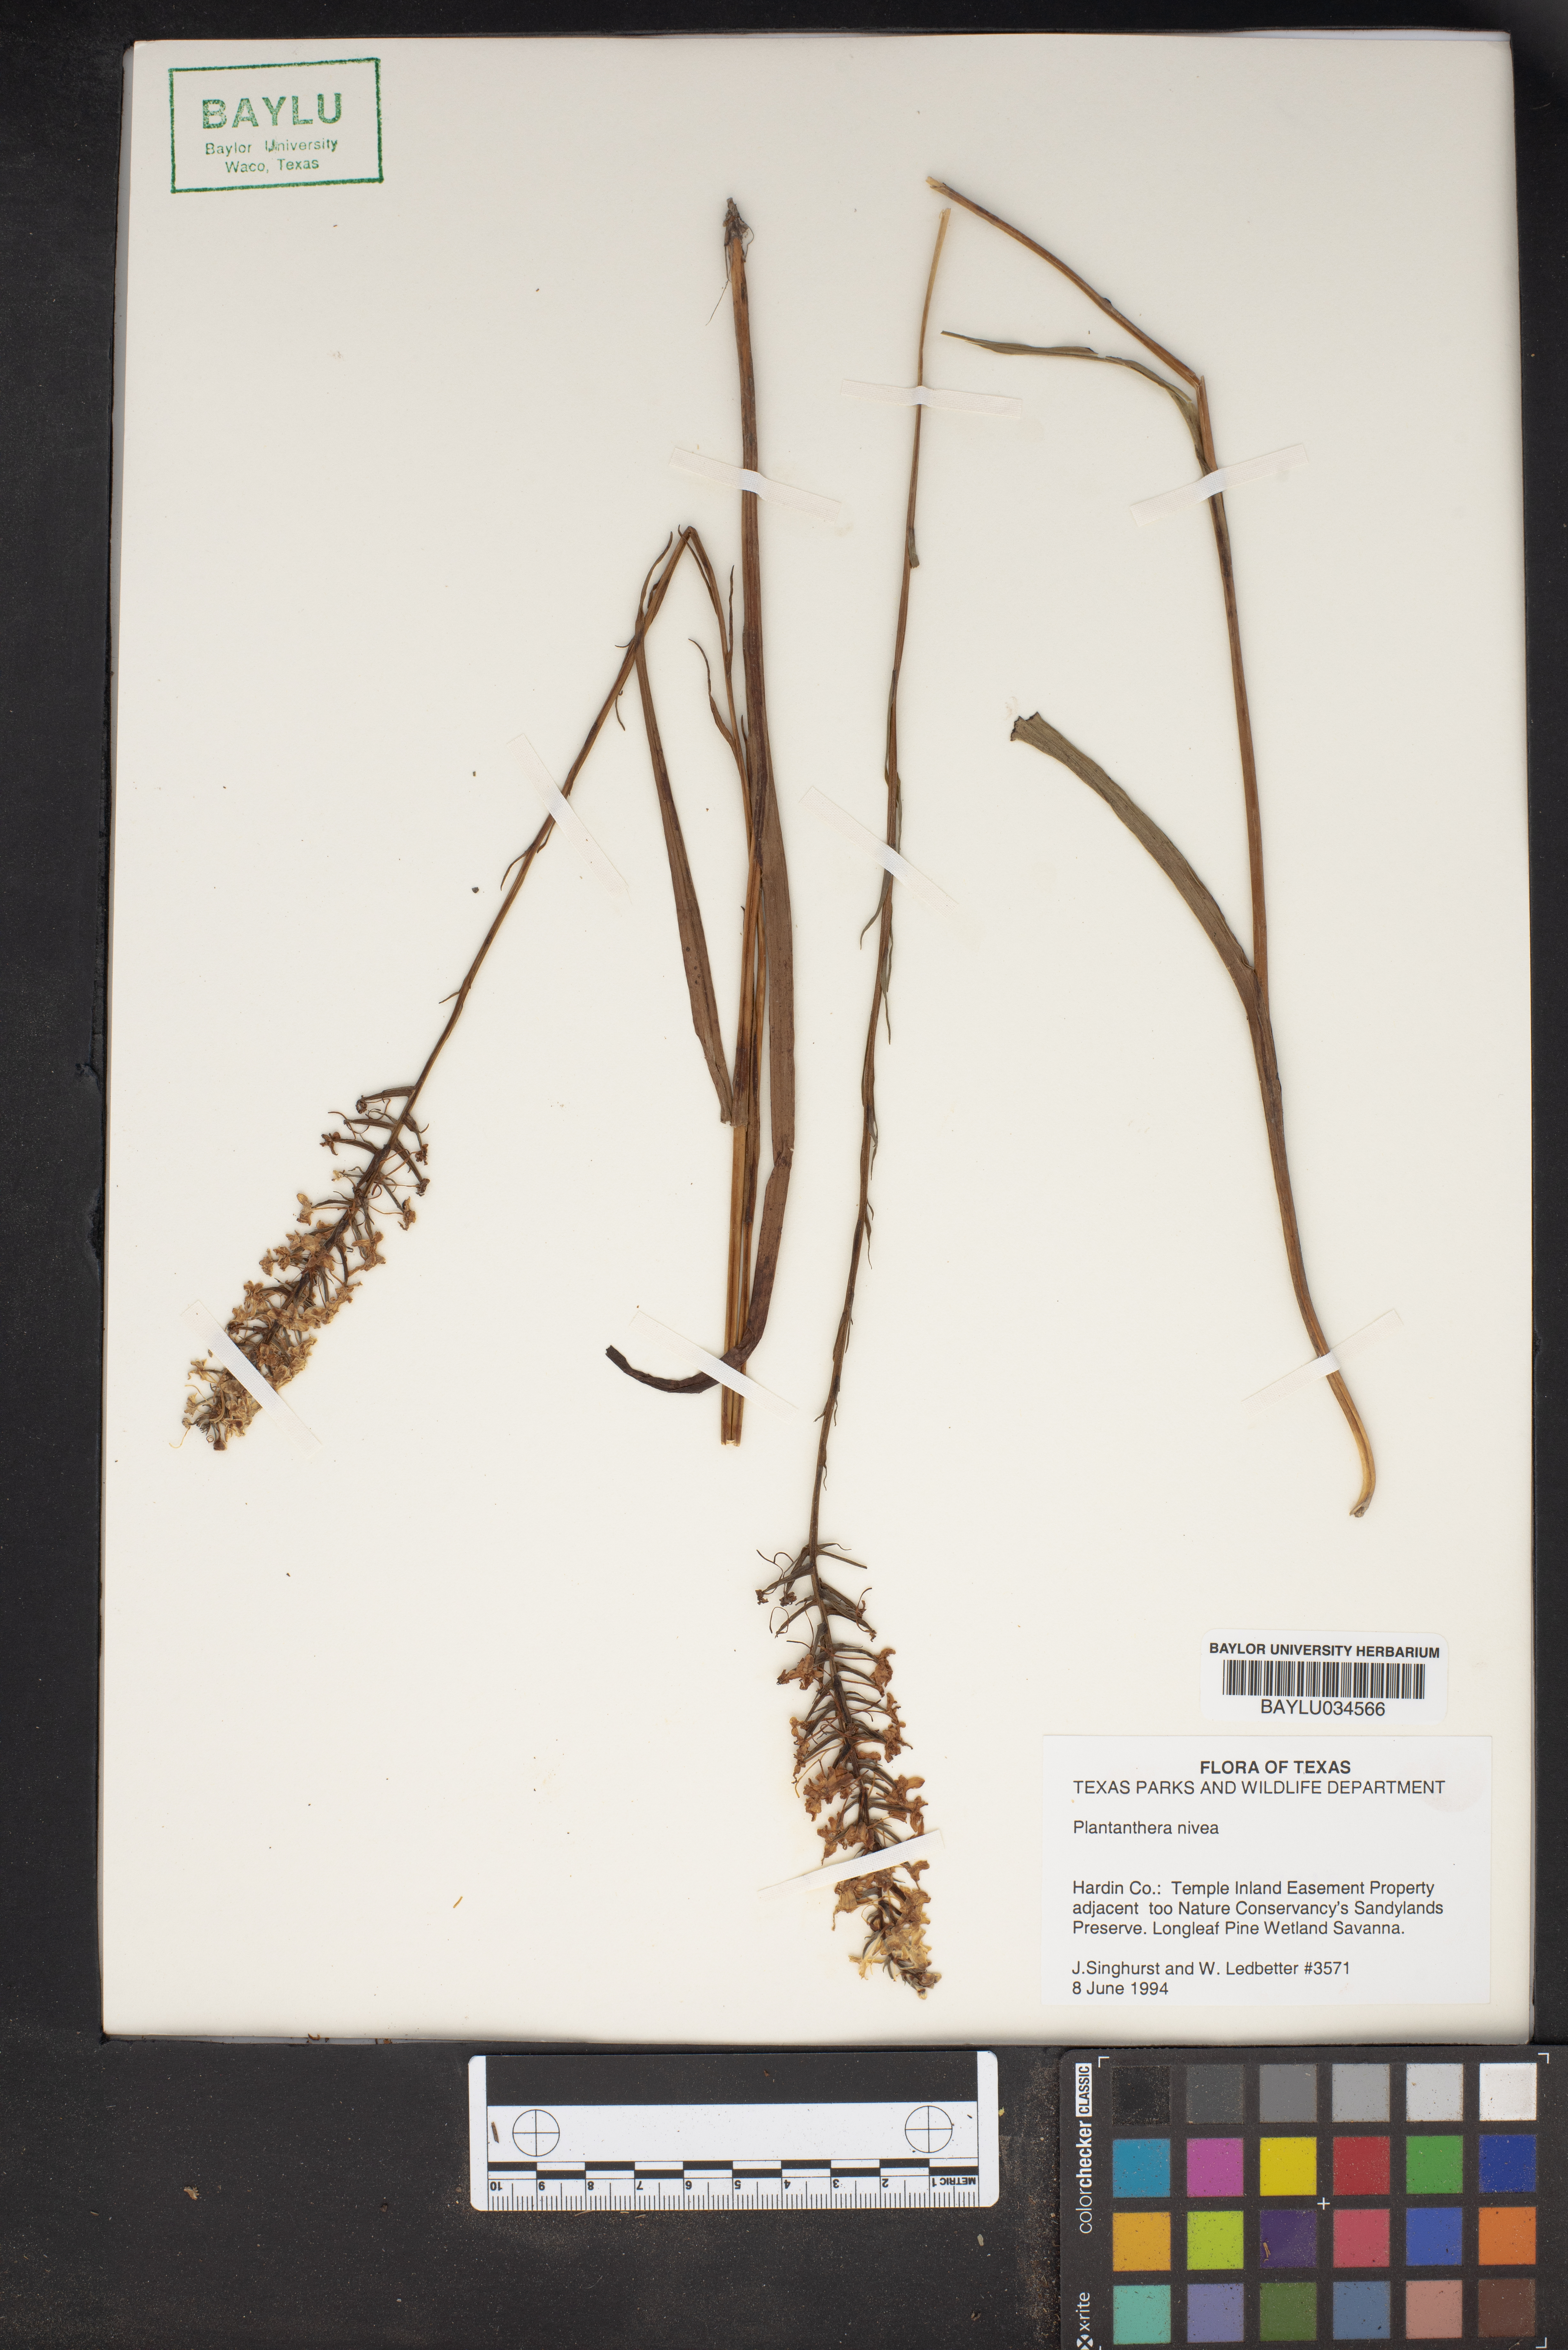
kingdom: Plantae
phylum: Tracheophyta
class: Liliopsida
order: Asparagales
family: Orchidaceae
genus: Platanthera
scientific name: Platanthera nivea
